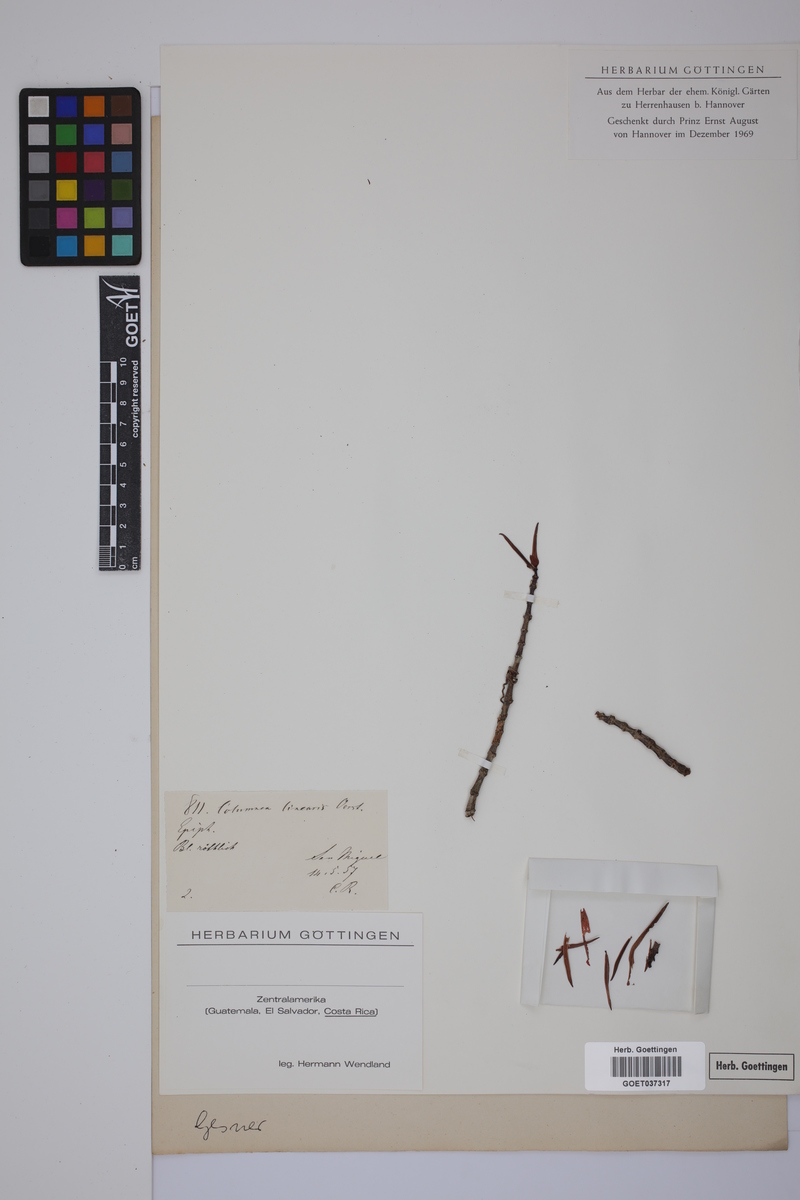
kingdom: Plantae
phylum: Tracheophyta
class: Magnoliopsida
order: Lamiales
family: Gesneriaceae
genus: Columnea
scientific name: Columnea linearis
